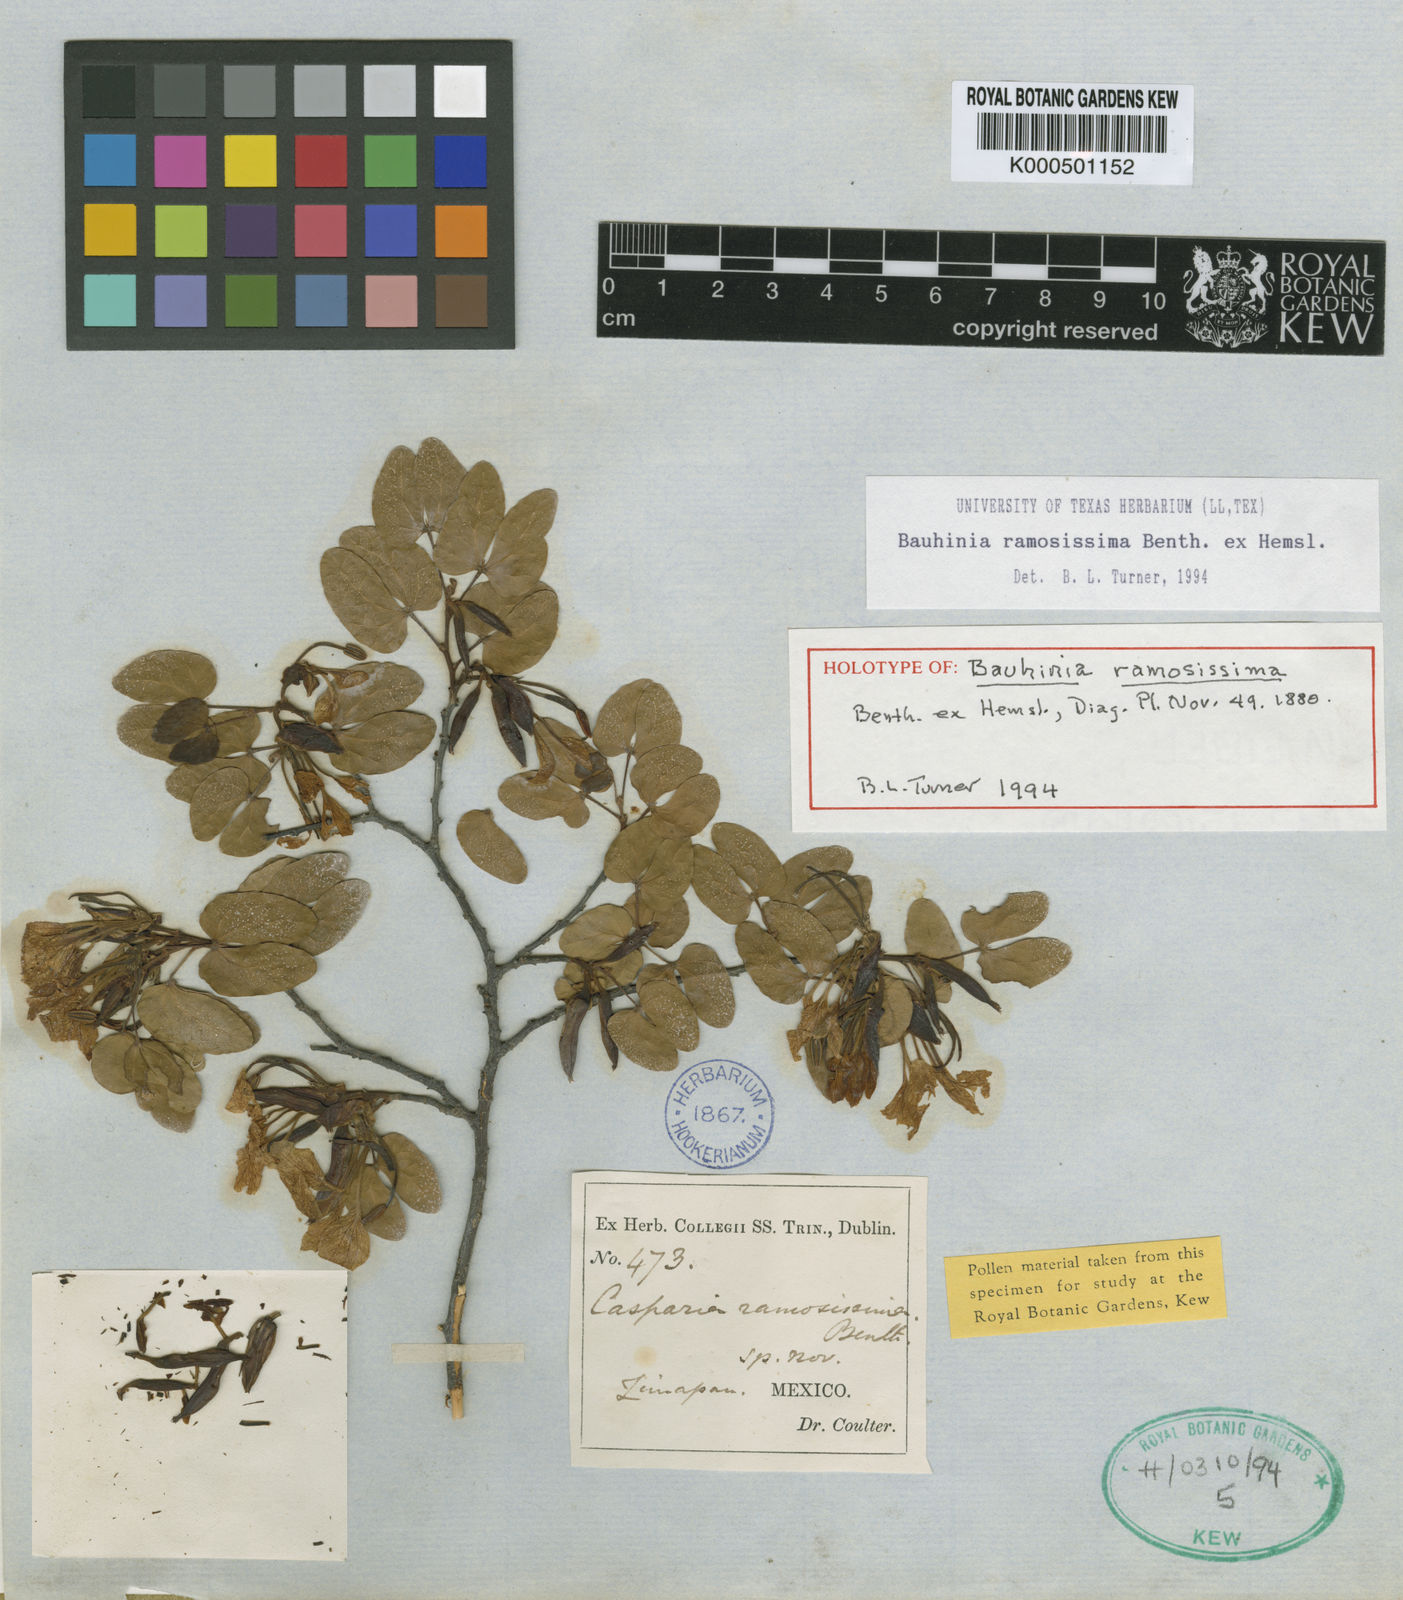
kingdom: Plantae
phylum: Tracheophyta
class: Magnoliopsida
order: Fabales
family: Fabaceae
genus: Bauhinia
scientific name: Bauhinia ramosissima
